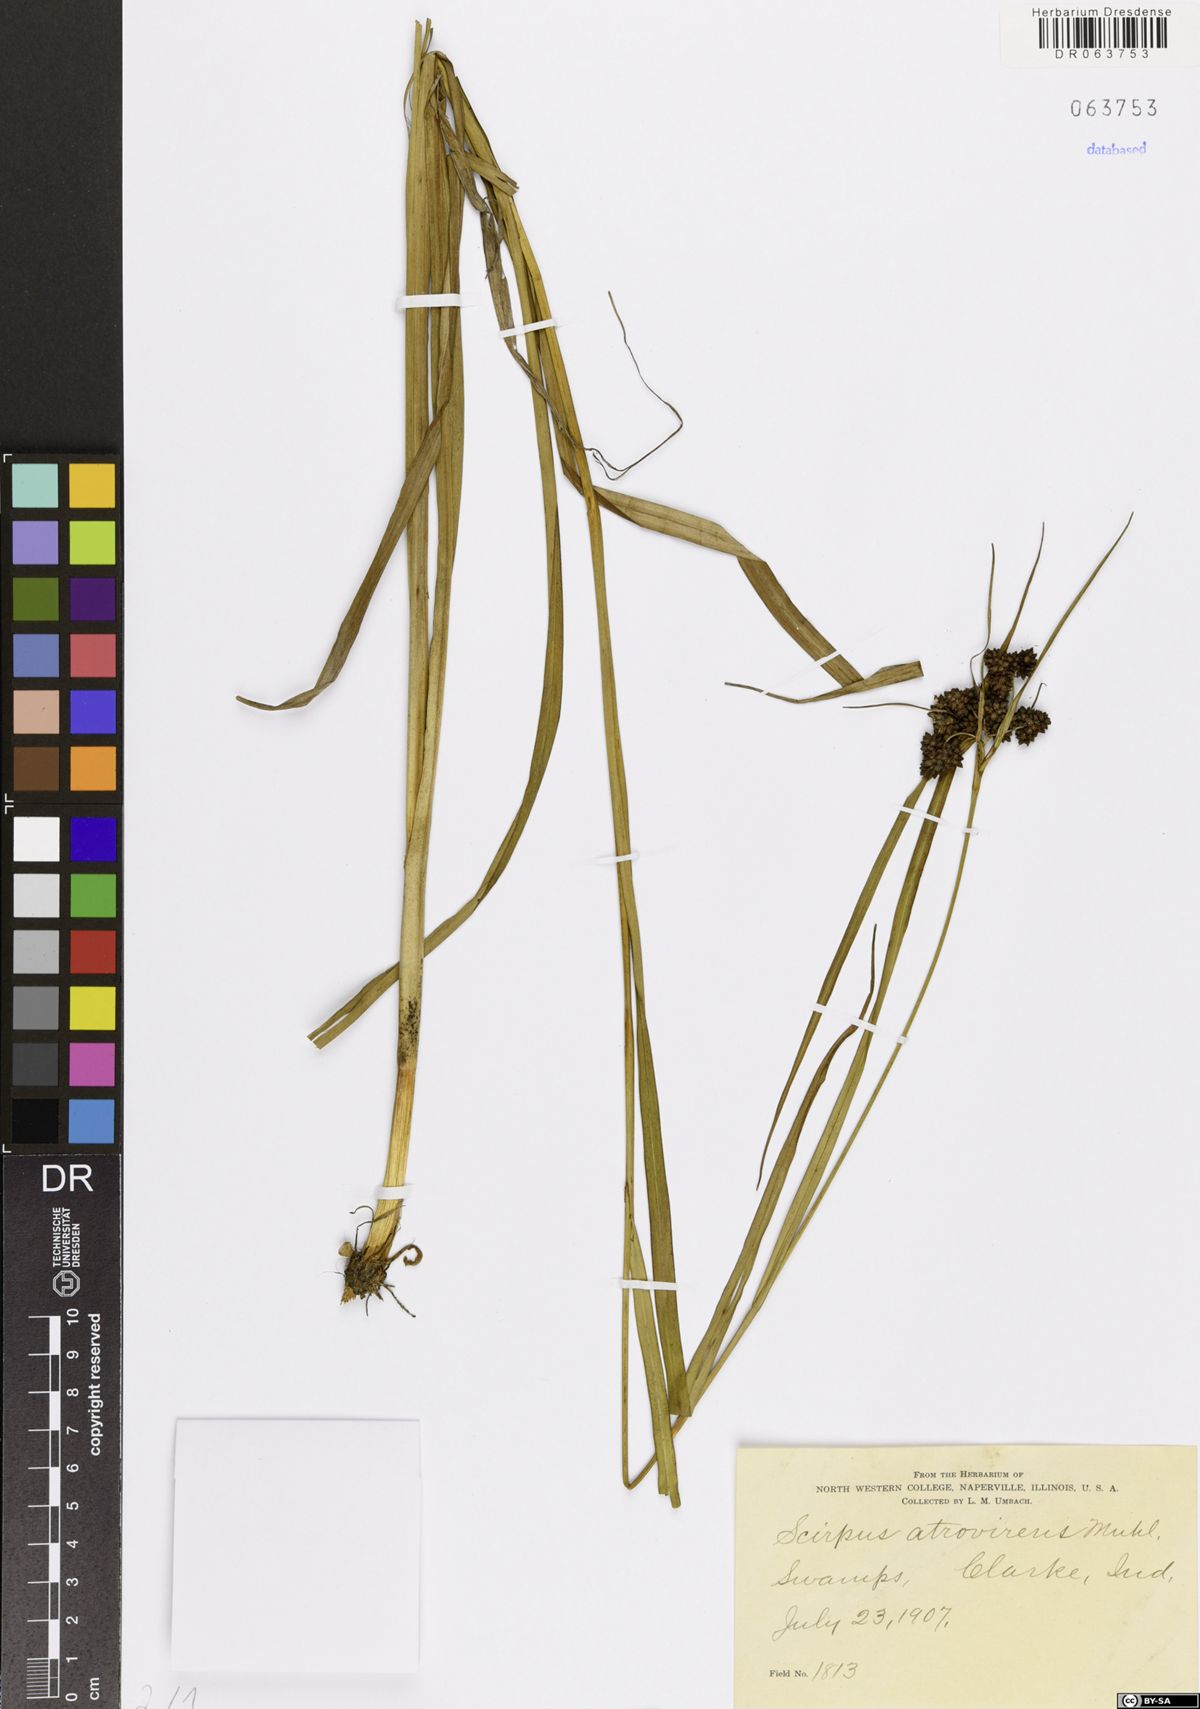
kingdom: Plantae
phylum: Tracheophyta
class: Liliopsida
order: Poales
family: Cyperaceae
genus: Scirpus
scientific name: Scirpus atrovirens
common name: Black bulrush
